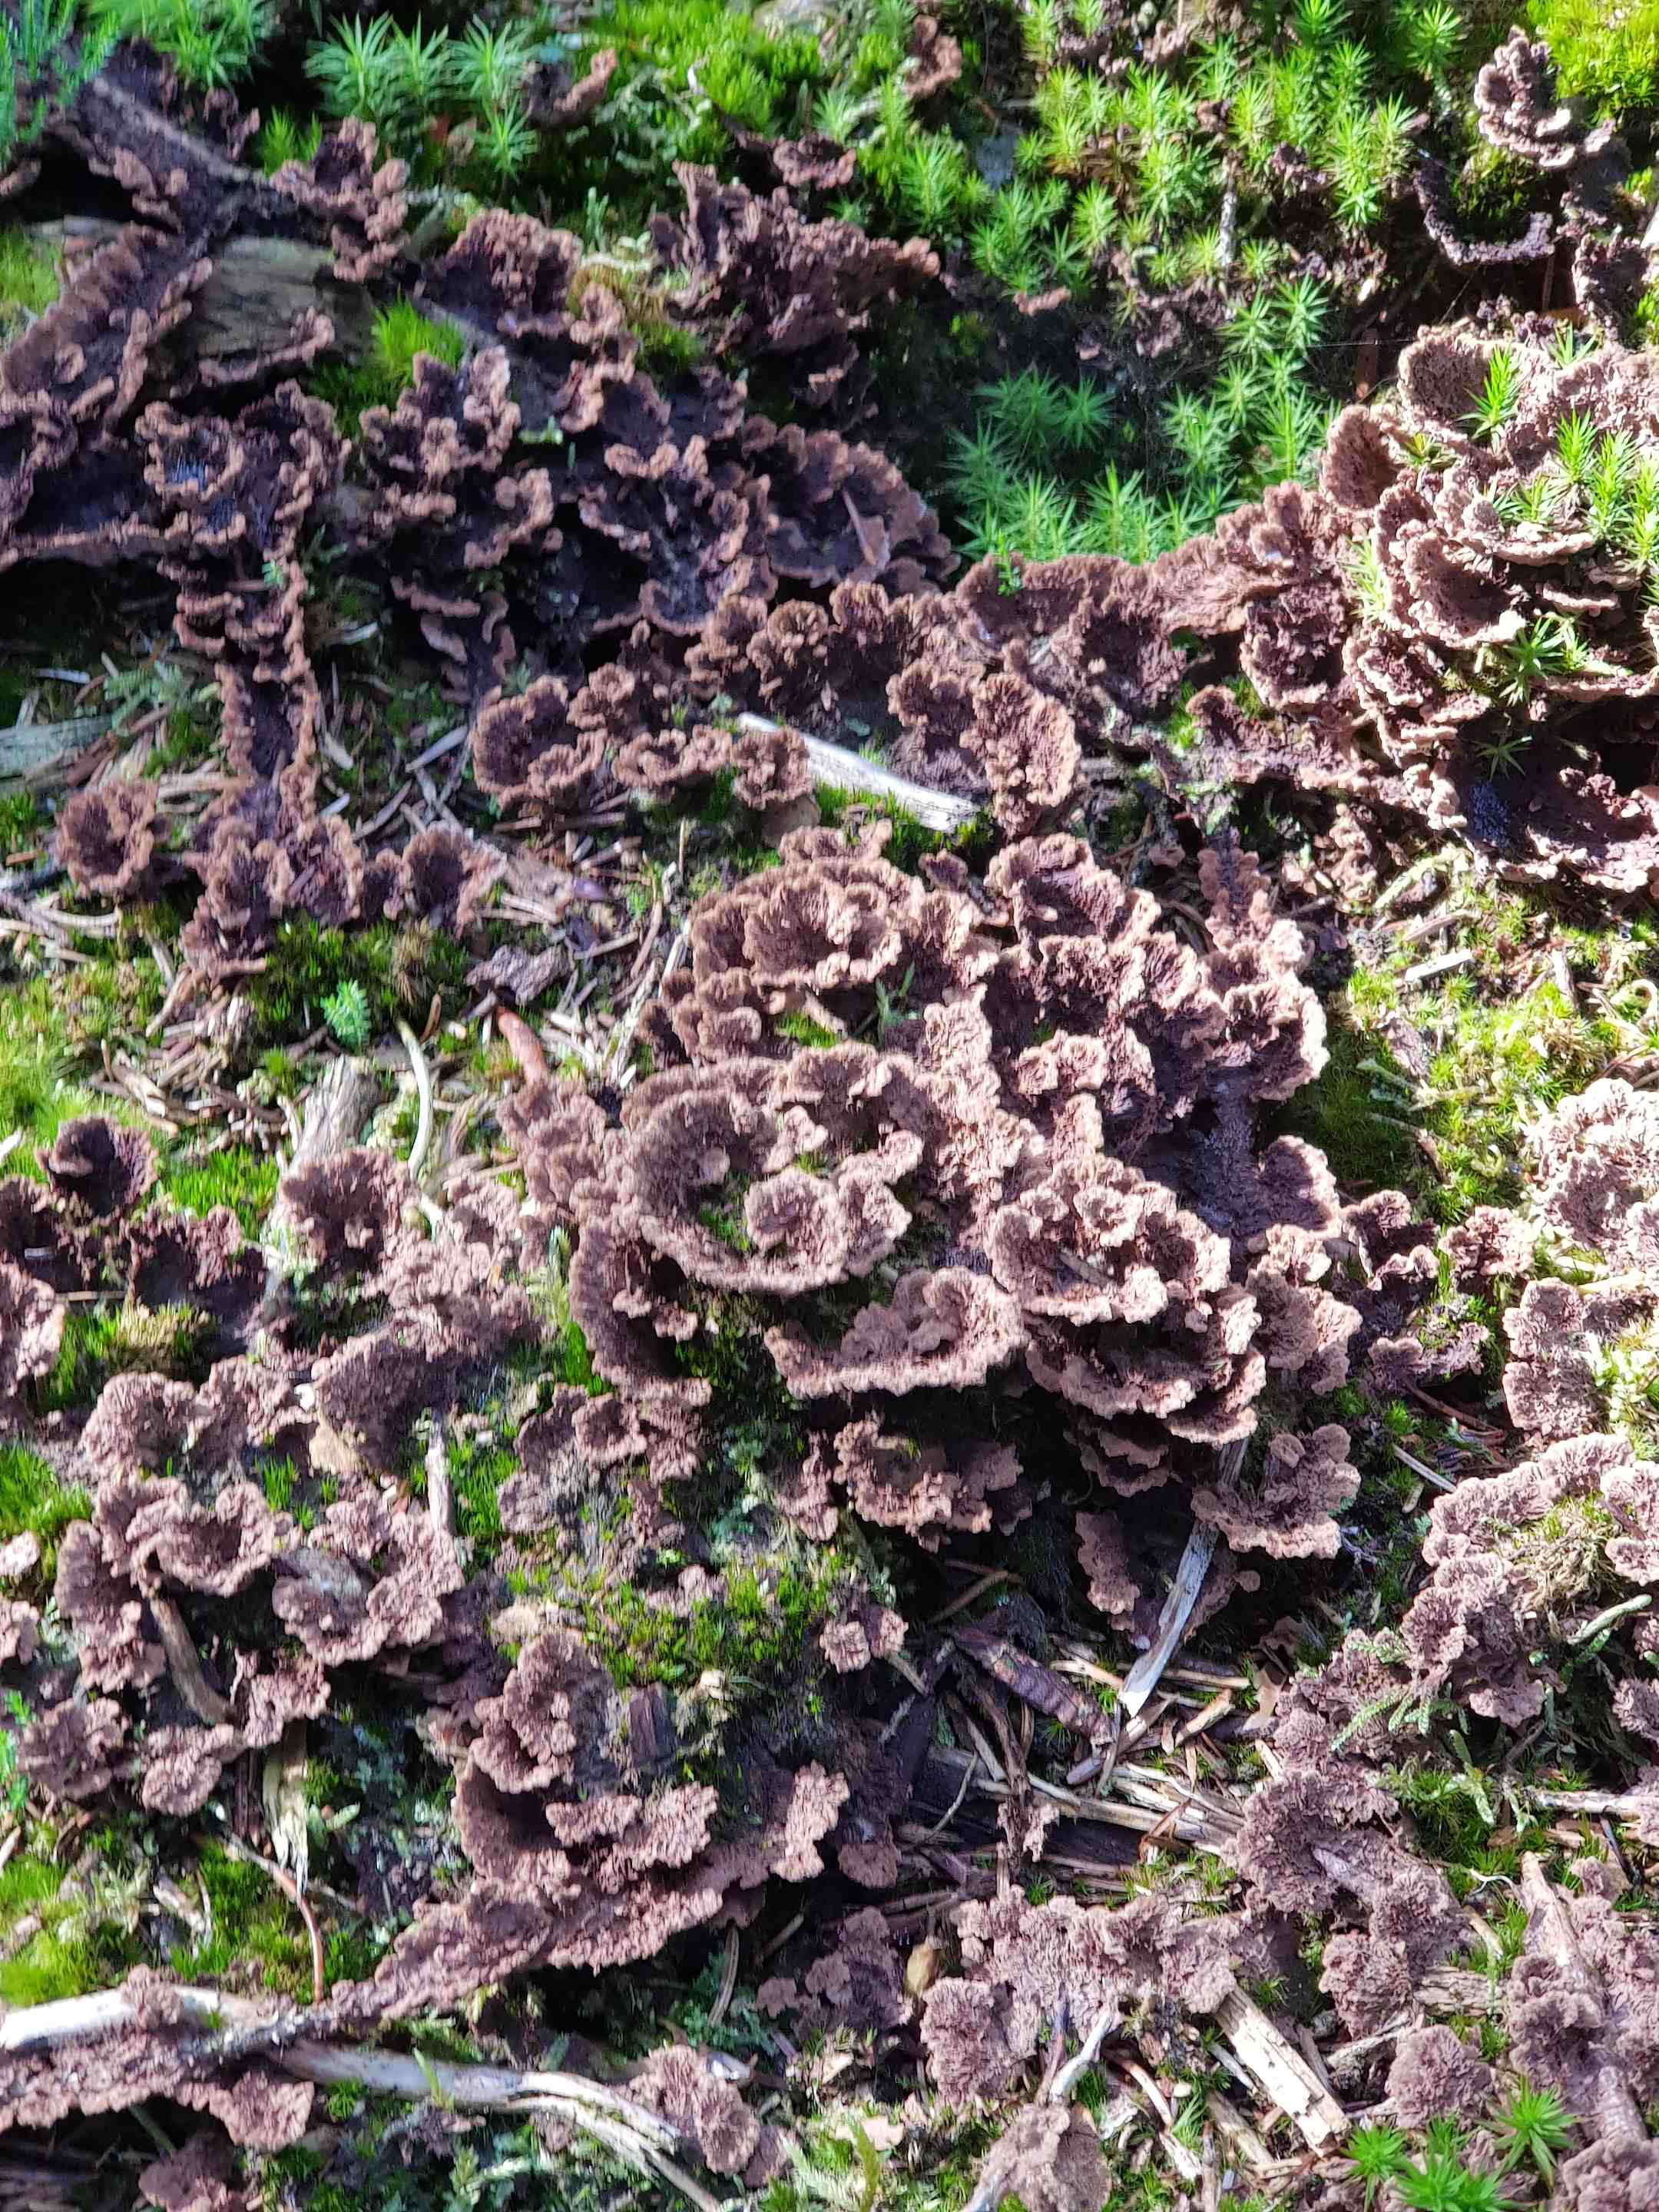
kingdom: Fungi
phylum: Basidiomycota
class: Agaricomycetes
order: Thelephorales
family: Thelephoraceae
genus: Thelephora
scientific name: Thelephora terrestris
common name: fliget frynsesvamp
